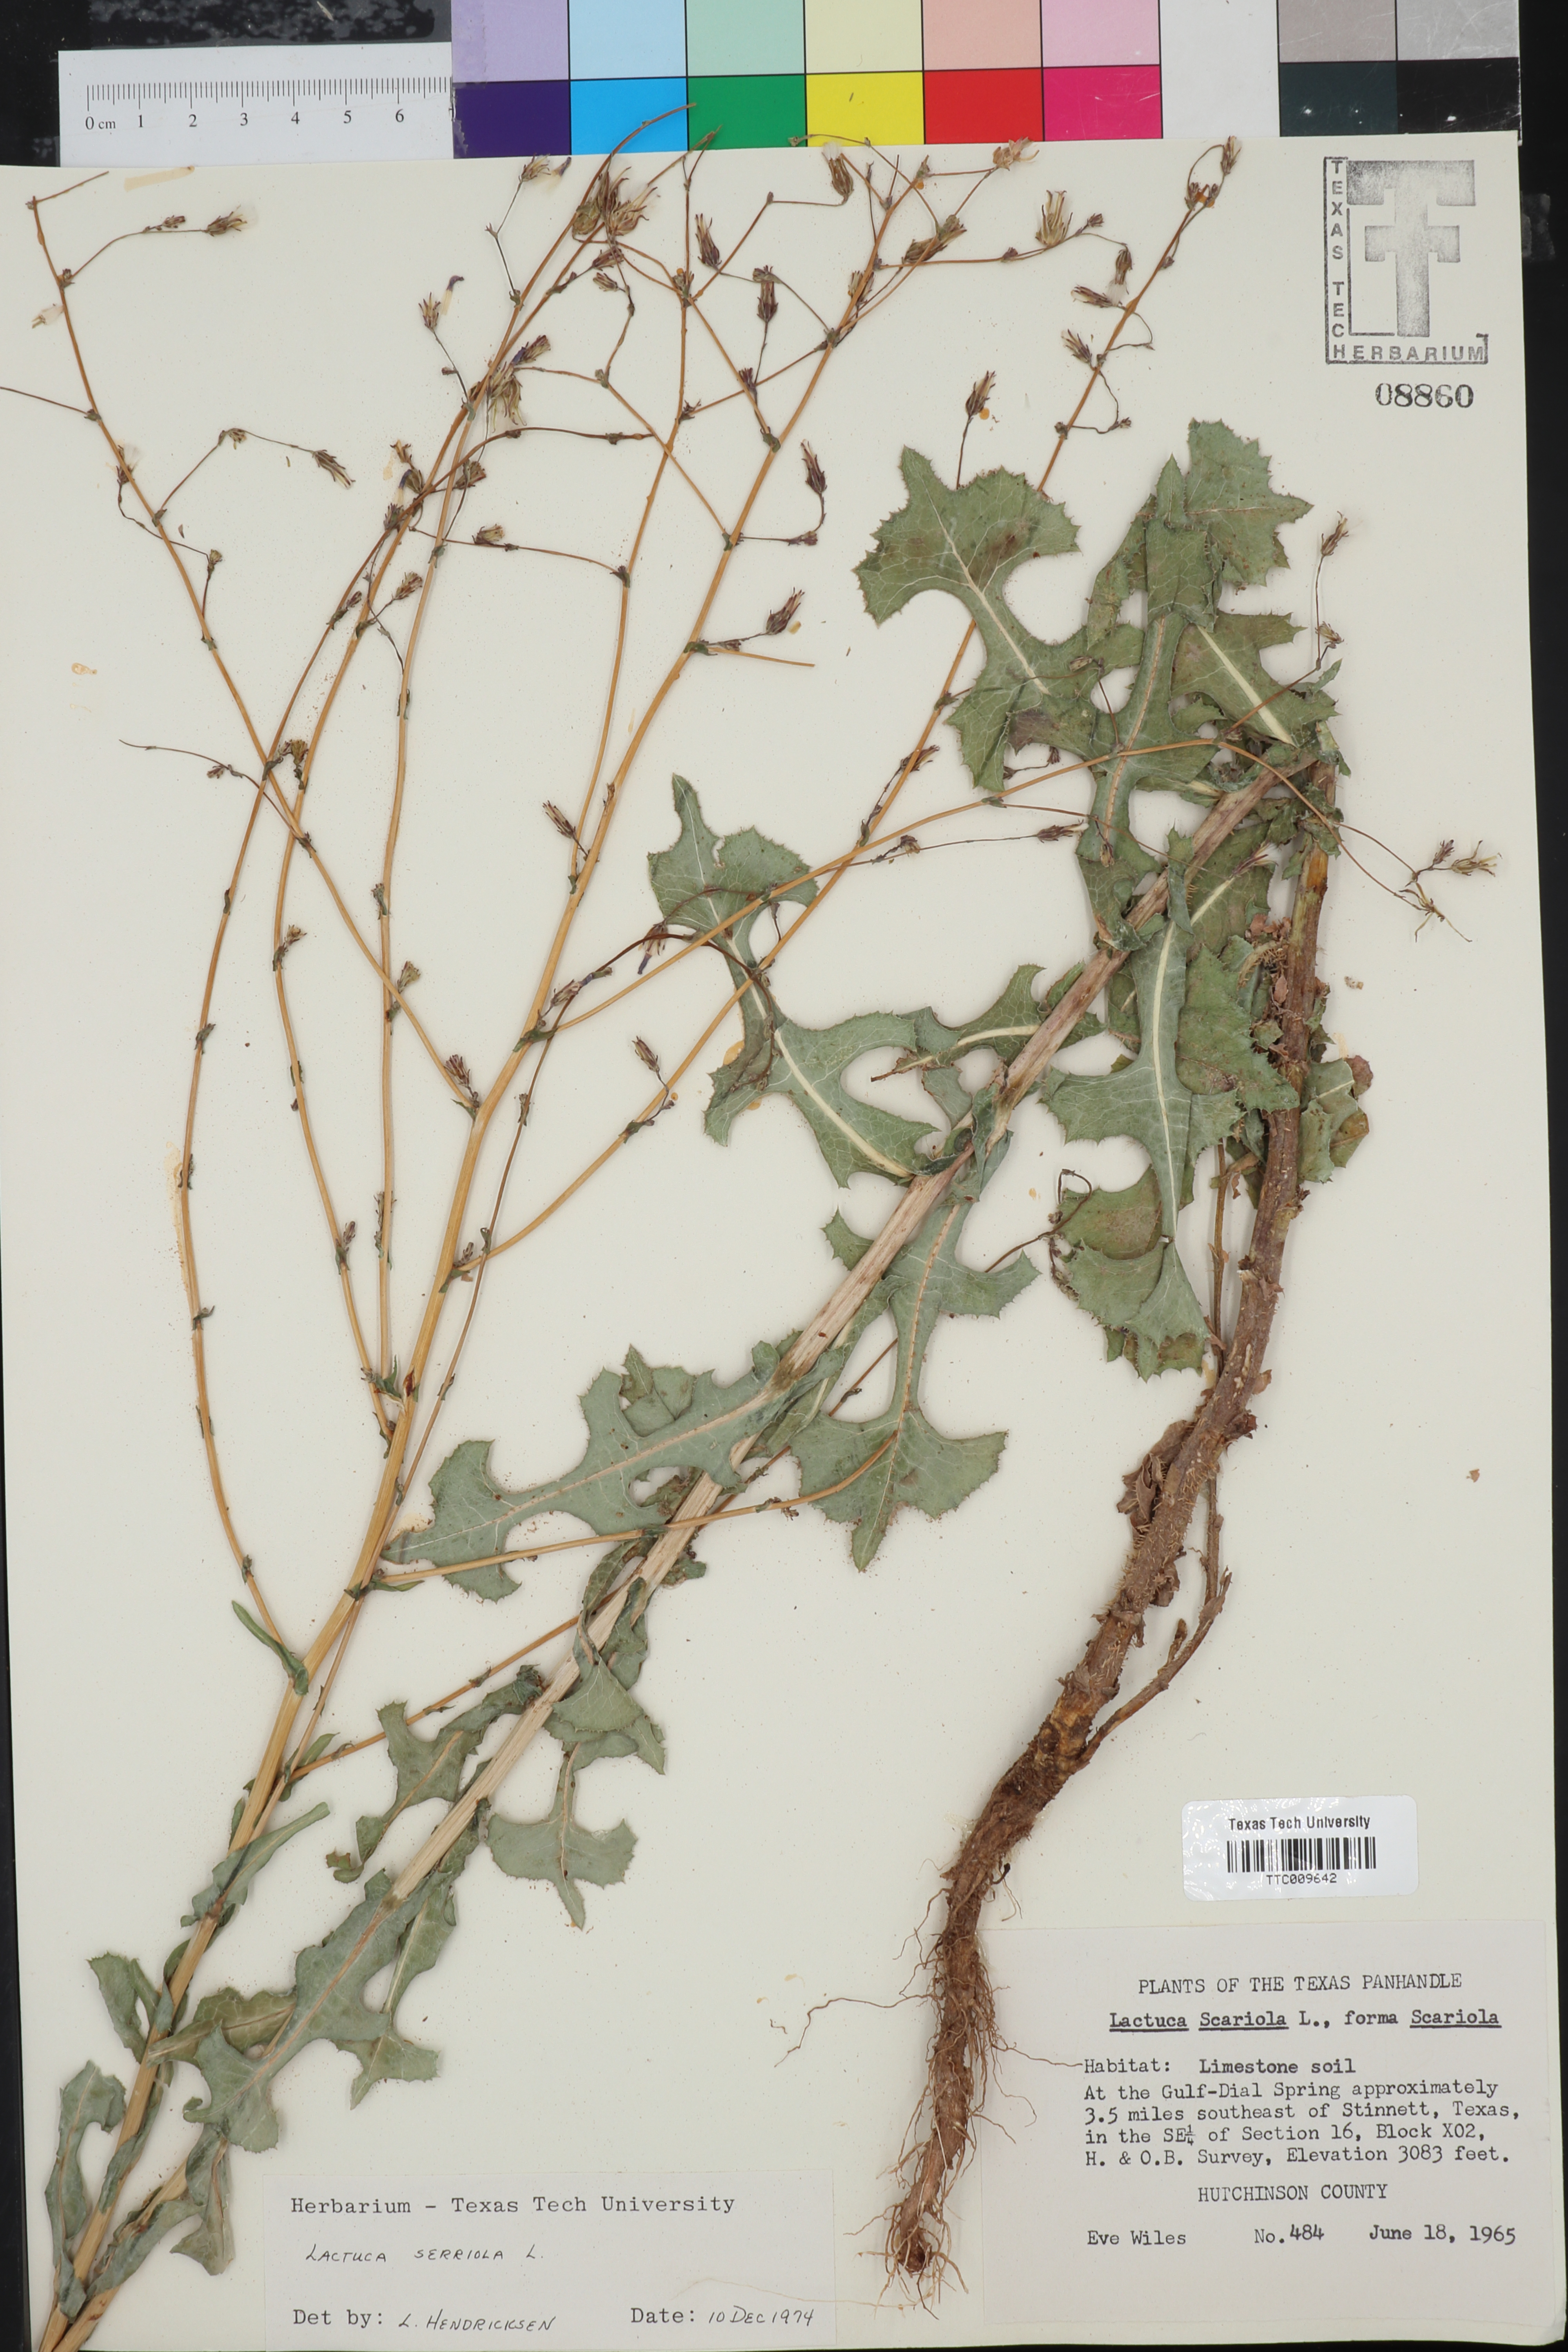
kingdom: Plantae
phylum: Tracheophyta
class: Magnoliopsida
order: Asterales
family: Asteraceae
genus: Lactuca
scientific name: Lactuca serriola
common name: Prickly lettuce
